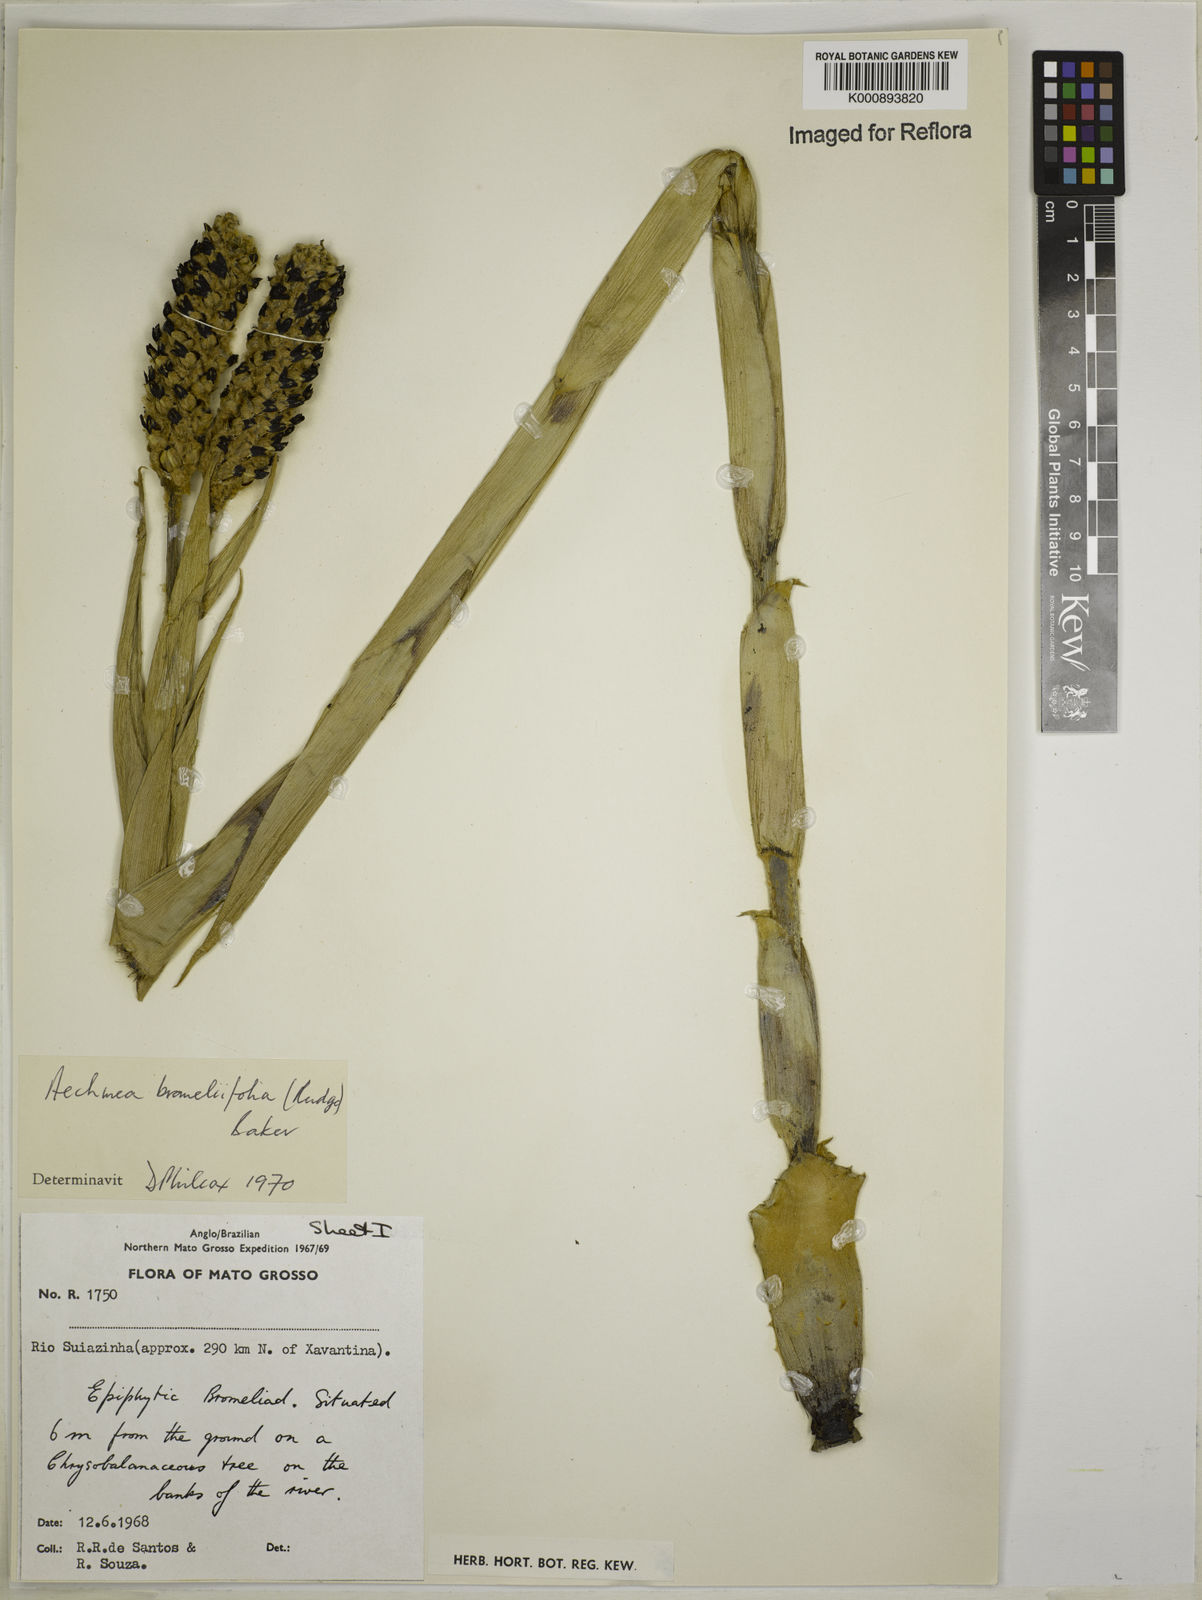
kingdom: Plantae
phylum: Tracheophyta
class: Liliopsida
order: Poales
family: Bromeliaceae
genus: Aechmea
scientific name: Aechmea
